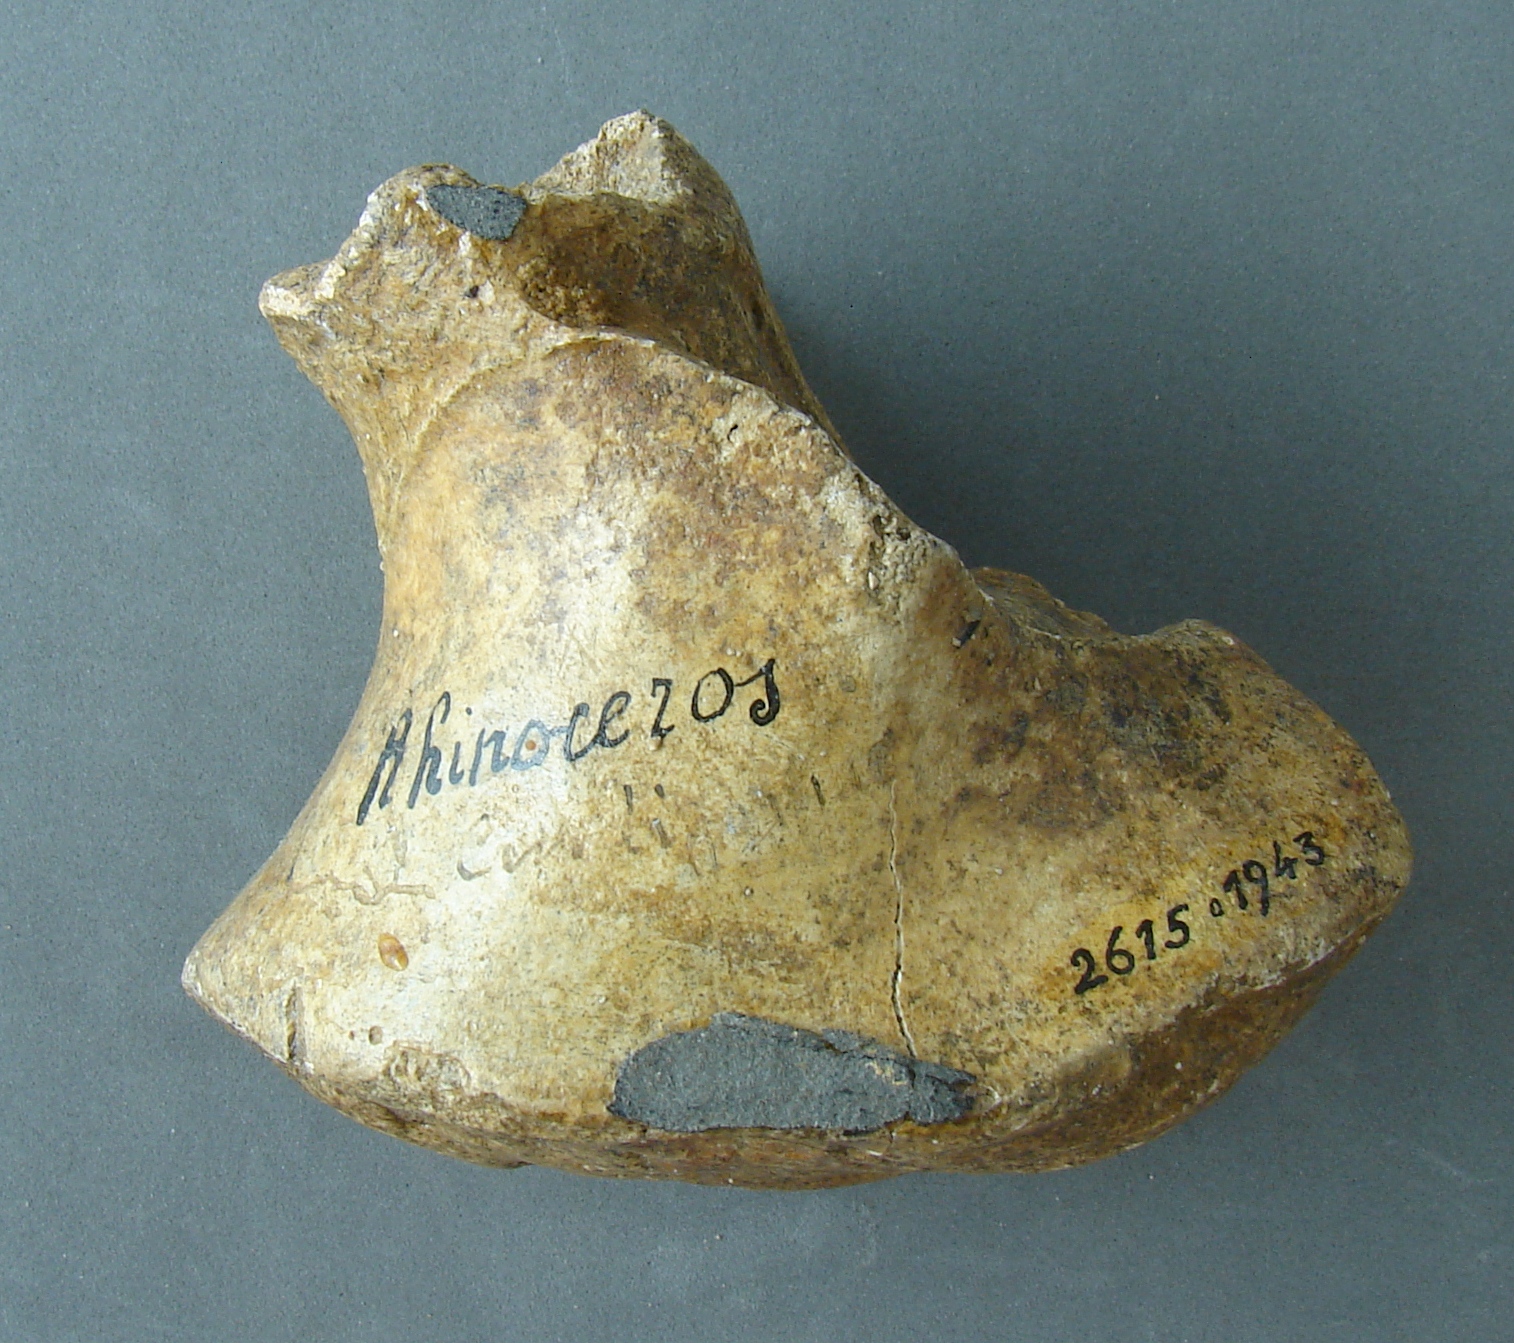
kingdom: Animalia
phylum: Chordata
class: Mammalia
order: Perissodactyla
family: Rhinocerotidae
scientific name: Rhinocerotidae
